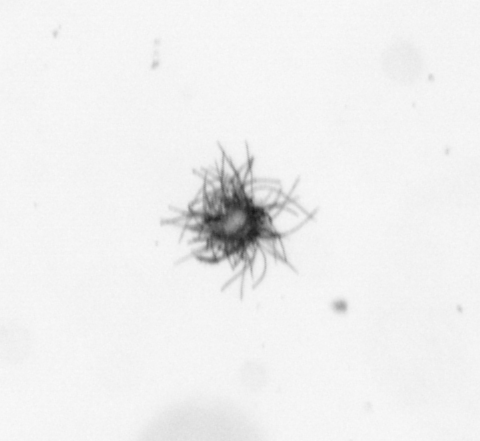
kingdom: Bacteria
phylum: Cyanobacteria
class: Cyanobacteriia
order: Cyanobacteriales
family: Microcoleaceae
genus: Trichodesmium
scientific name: Trichodesmium
